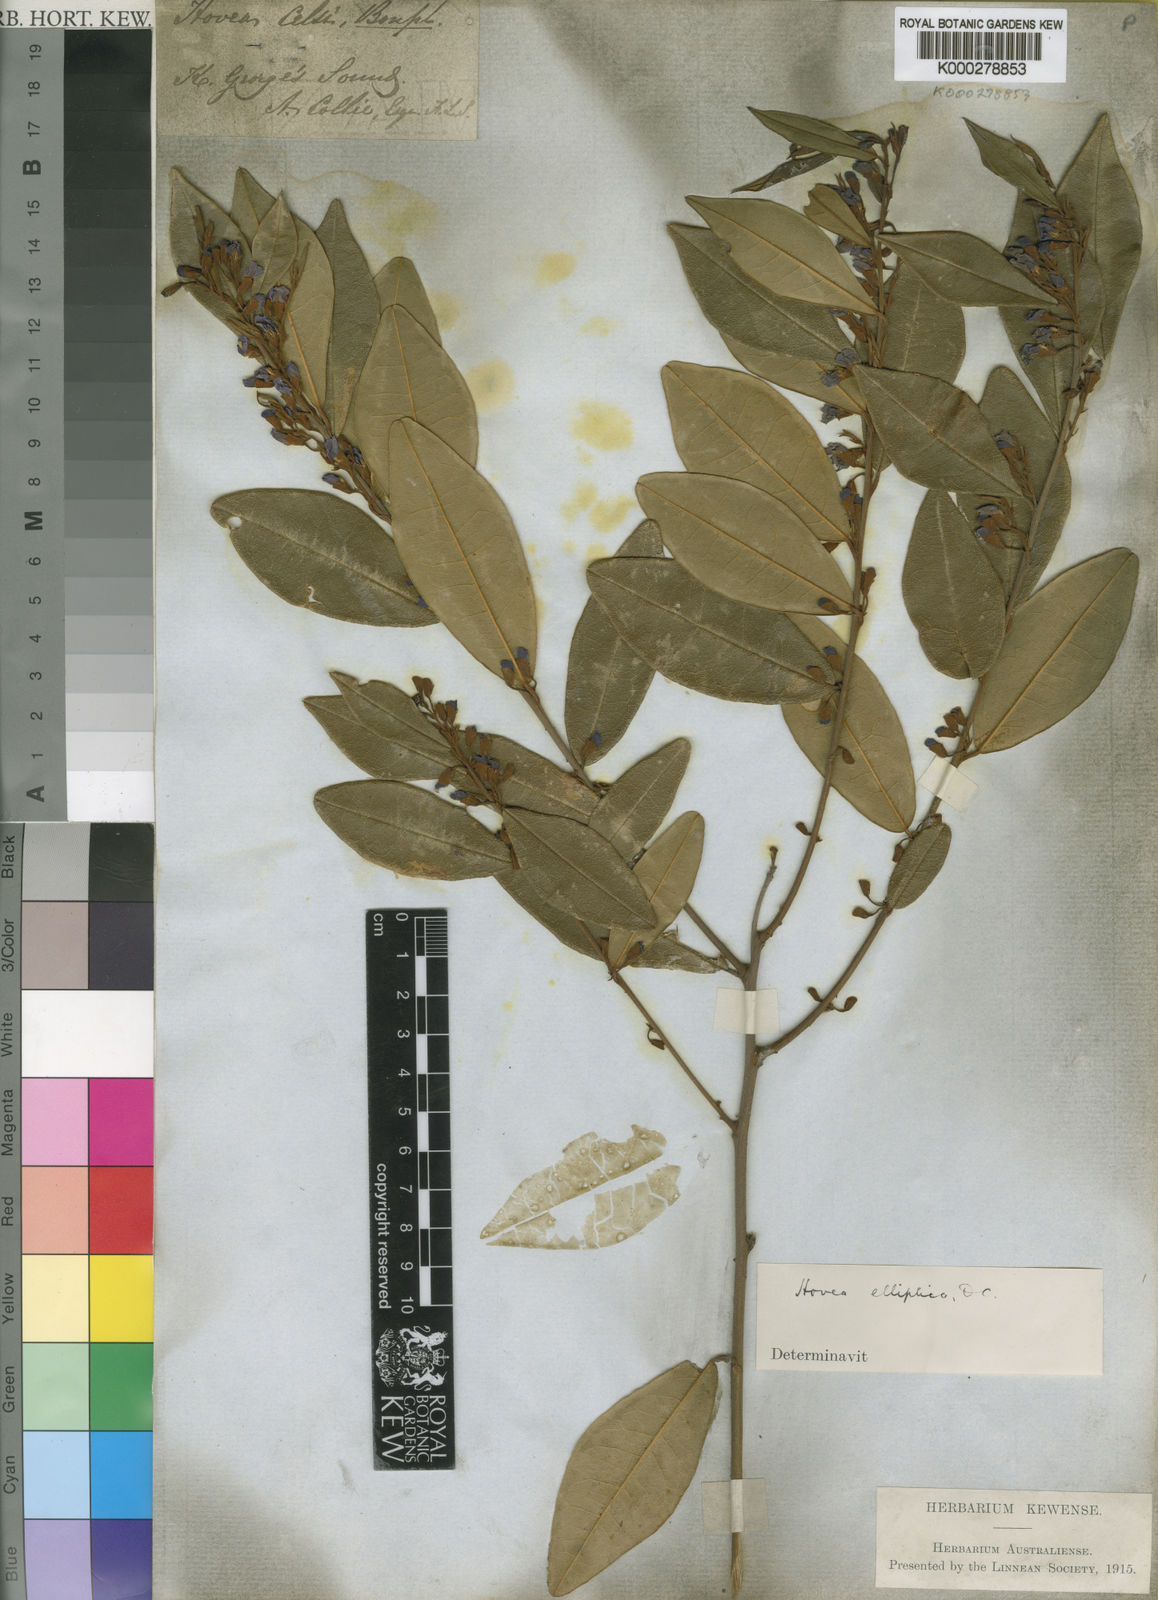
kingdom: Plantae
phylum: Tracheophyta
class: Magnoliopsida
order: Fabales
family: Fabaceae
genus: Hovea
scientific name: Hovea elliptica
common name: Tree hovea
